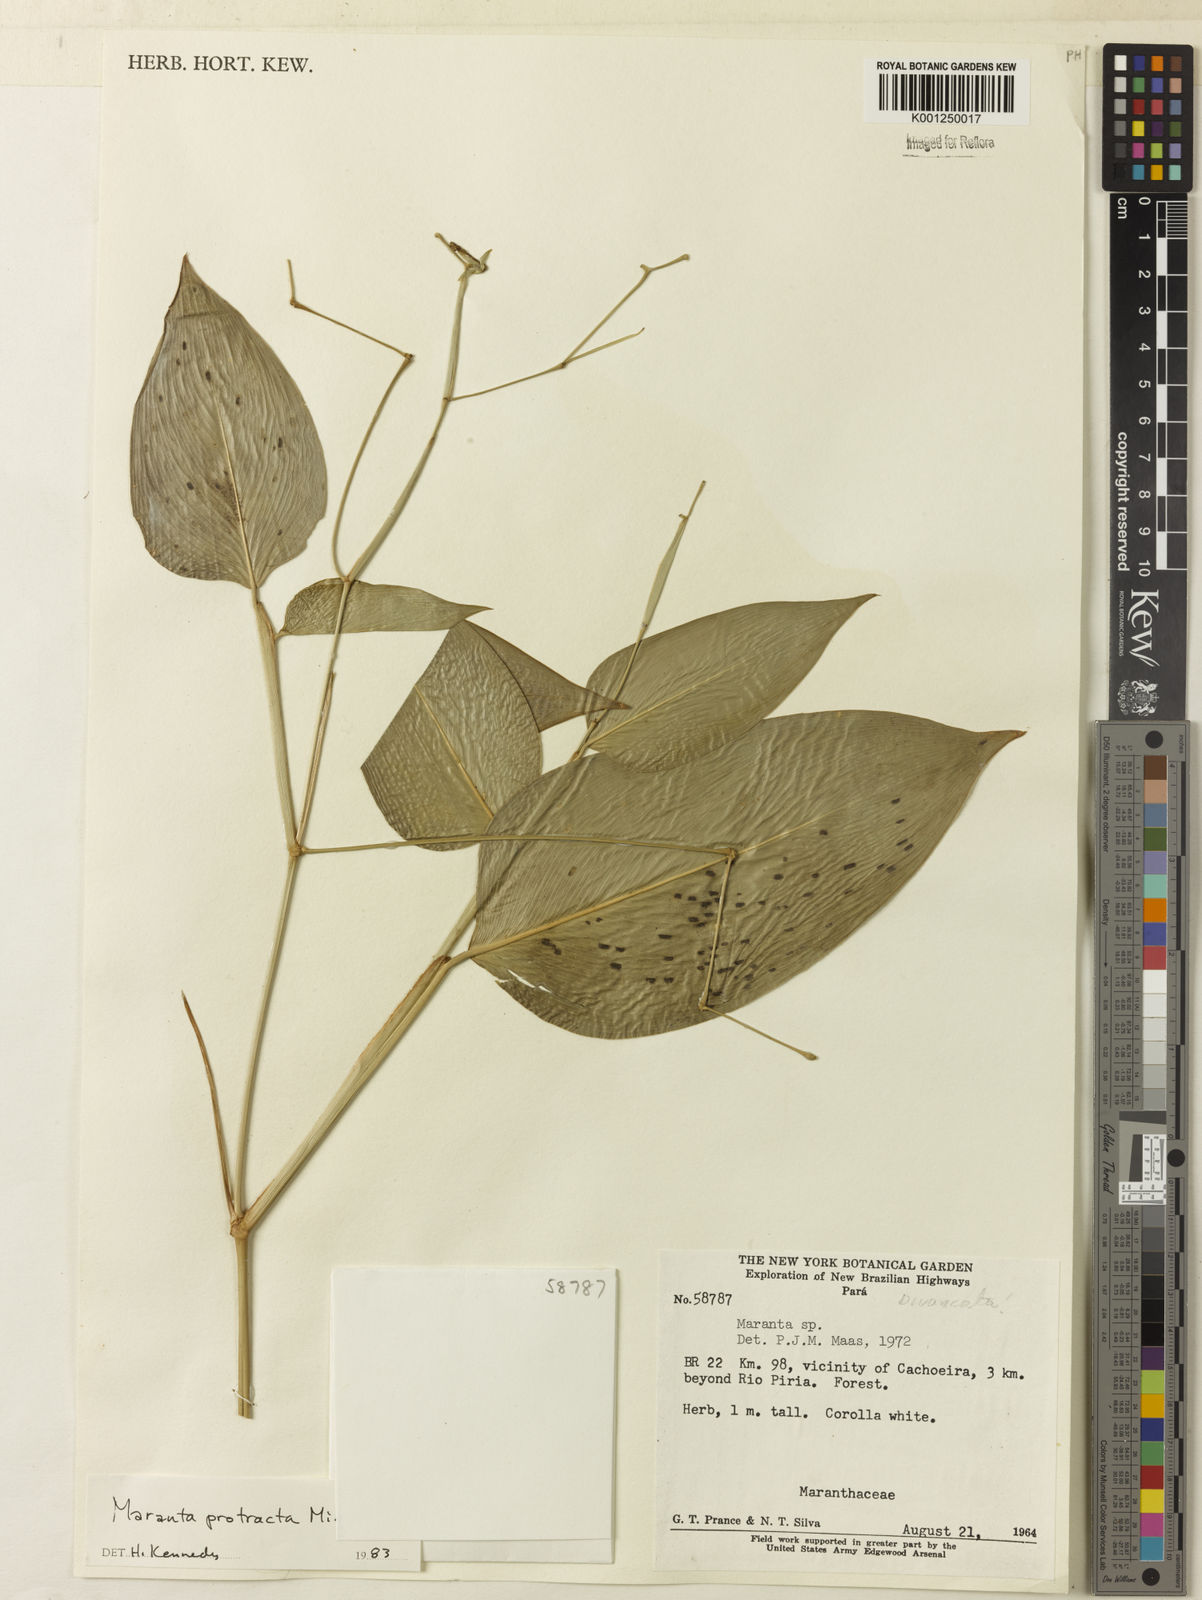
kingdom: Plantae
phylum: Tracheophyta
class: Liliopsida
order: Zingiberales
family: Marantaceae
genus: Maranta
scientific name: Maranta protracta
